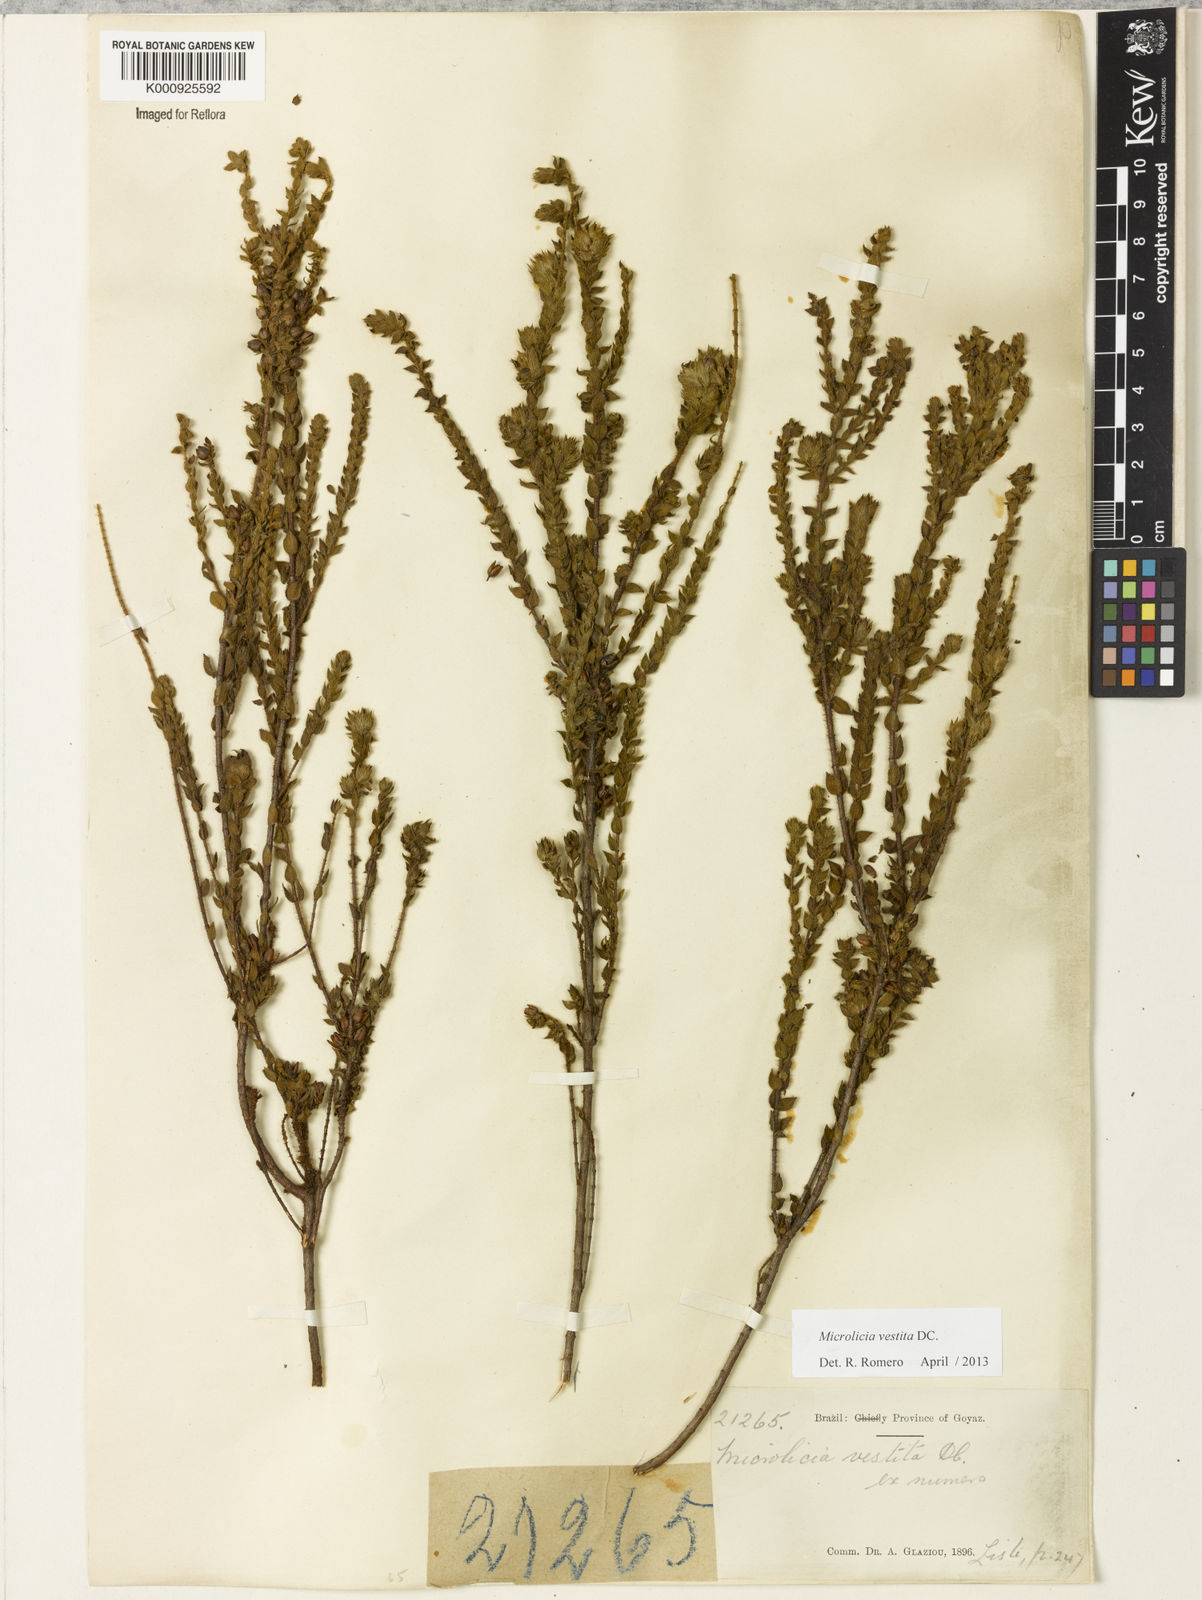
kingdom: Plantae
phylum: Tracheophyta
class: Magnoliopsida
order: Myrtales
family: Melastomataceae
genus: Microlicia
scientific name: Microlicia vestita
